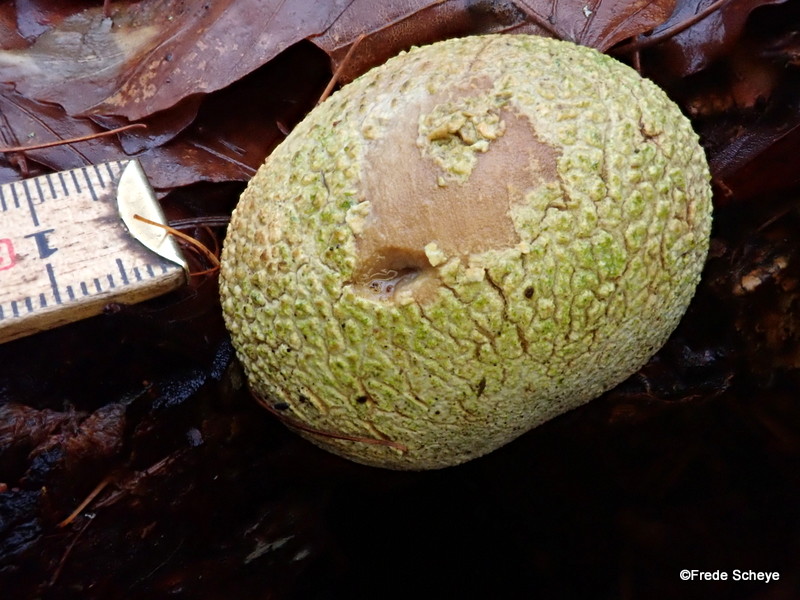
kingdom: Fungi
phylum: Basidiomycota
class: Agaricomycetes
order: Boletales
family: Sclerodermataceae
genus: Scleroderma
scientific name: Scleroderma citrinum
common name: almindelig bruskbold
